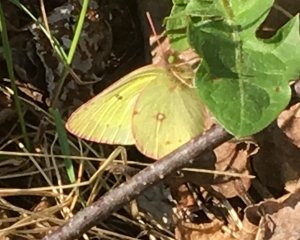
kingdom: Animalia
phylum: Arthropoda
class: Insecta
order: Lepidoptera
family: Pieridae
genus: Colias
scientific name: Colias philodice
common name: Clouded Sulphur
